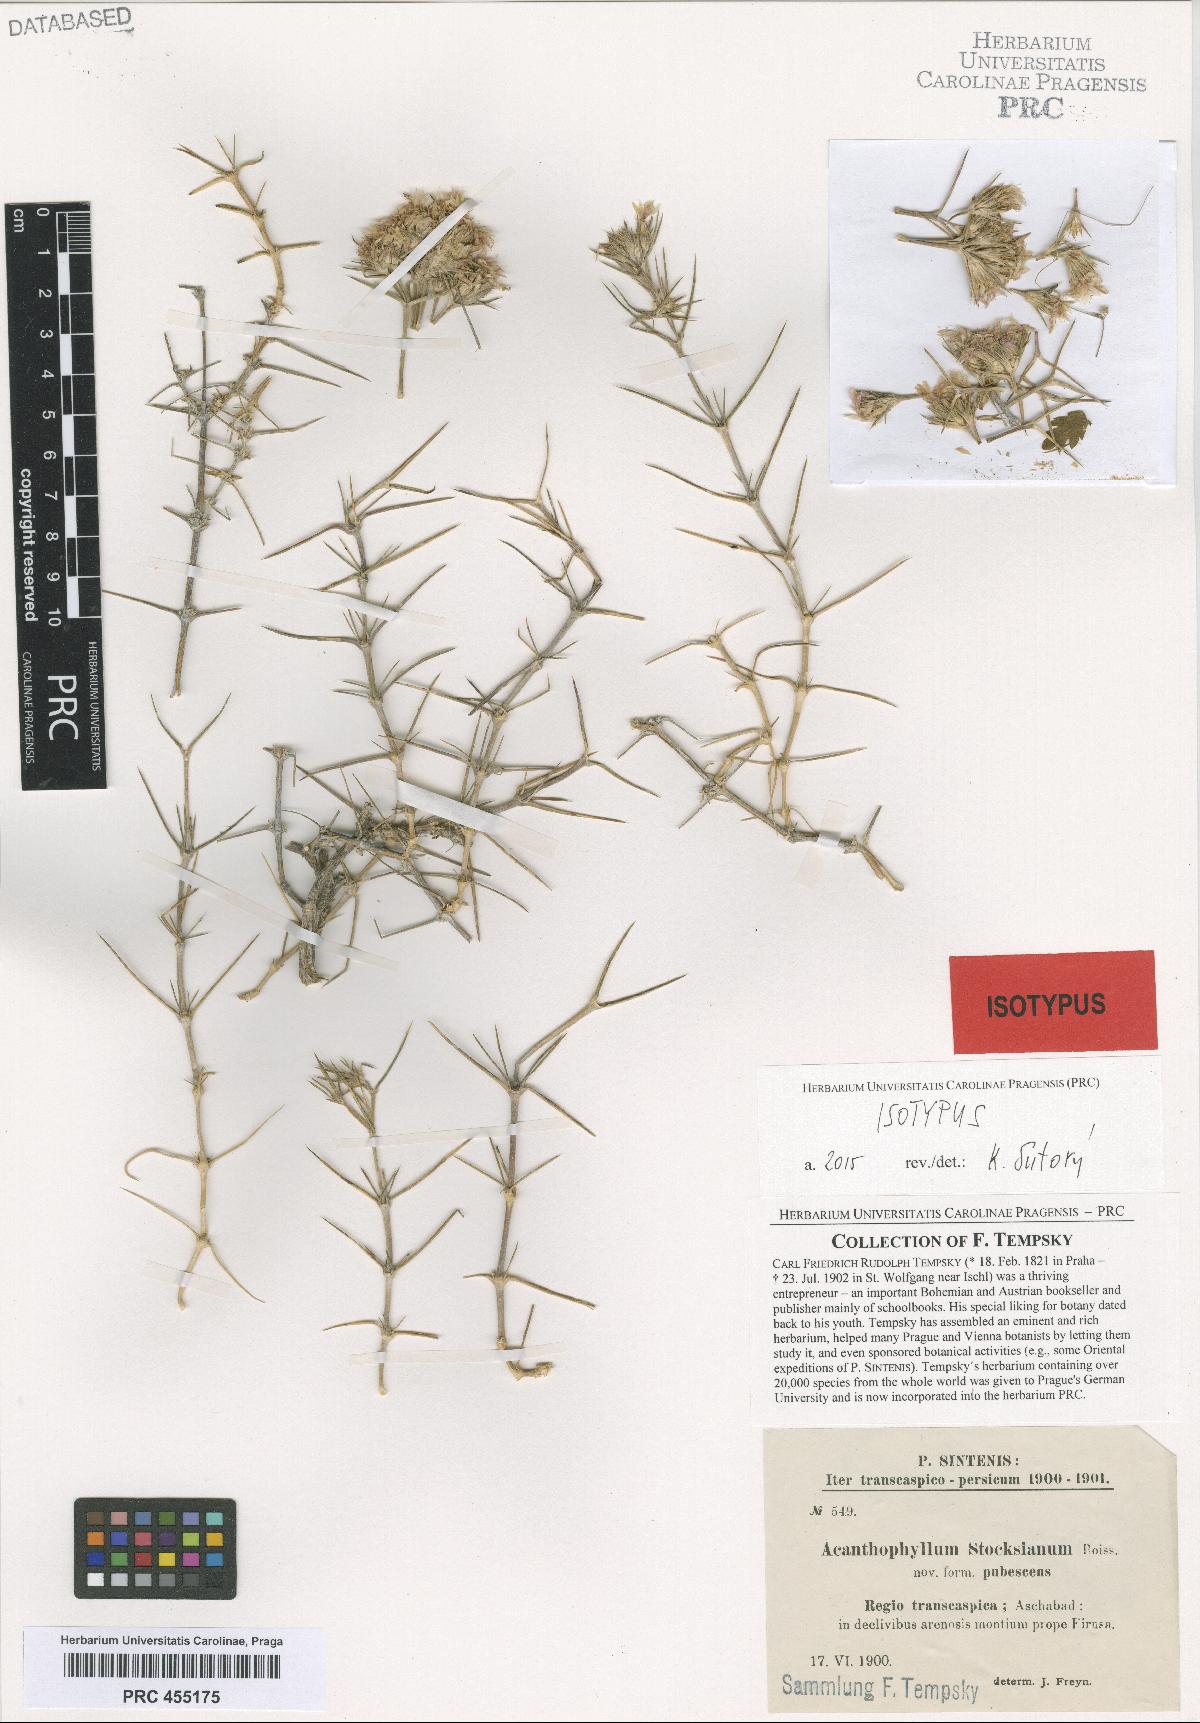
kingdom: Plantae
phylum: Tracheophyta
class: Magnoliopsida
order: Caryophyllales
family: Caryophyllaceae
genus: Acanthophyllum
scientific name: Acanthophyllum subglabrum
